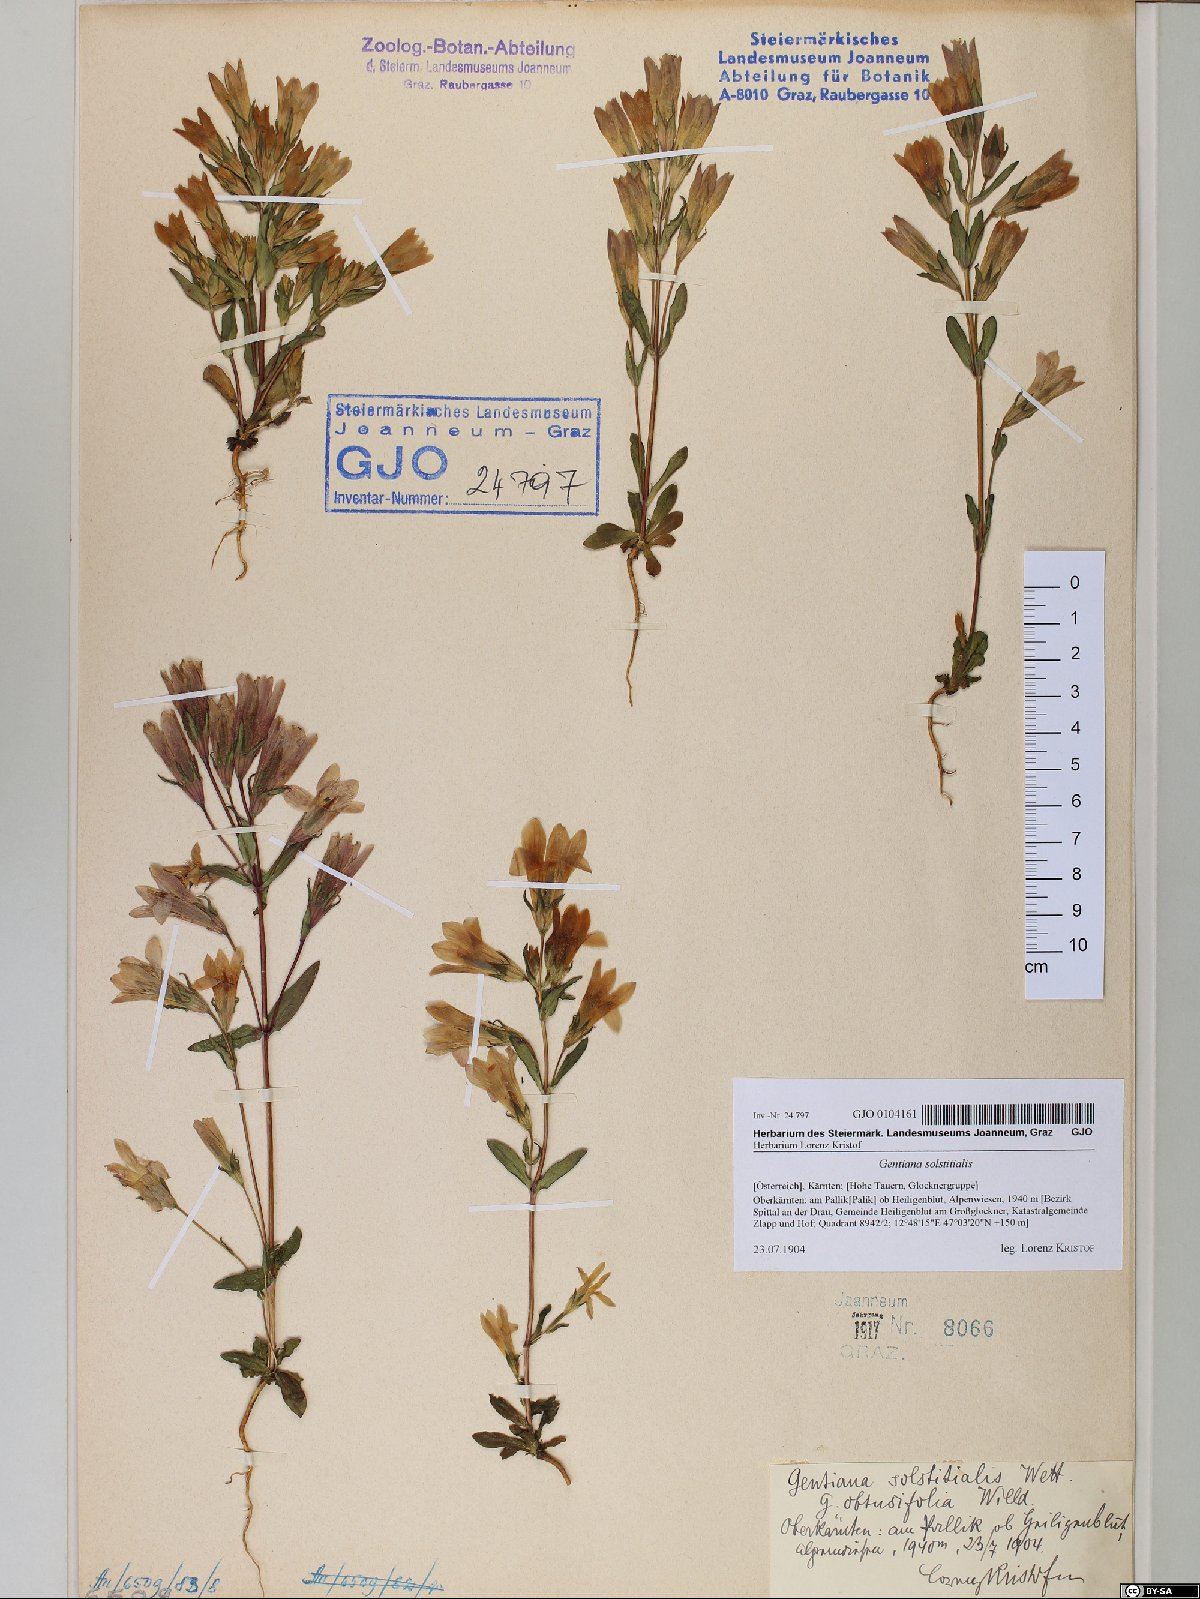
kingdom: Plantae
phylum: Tracheophyta
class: Magnoliopsida
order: Gentianales
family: Gentianaceae
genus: Gentianella
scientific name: Gentianella germanica
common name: Chiltern-gentian
